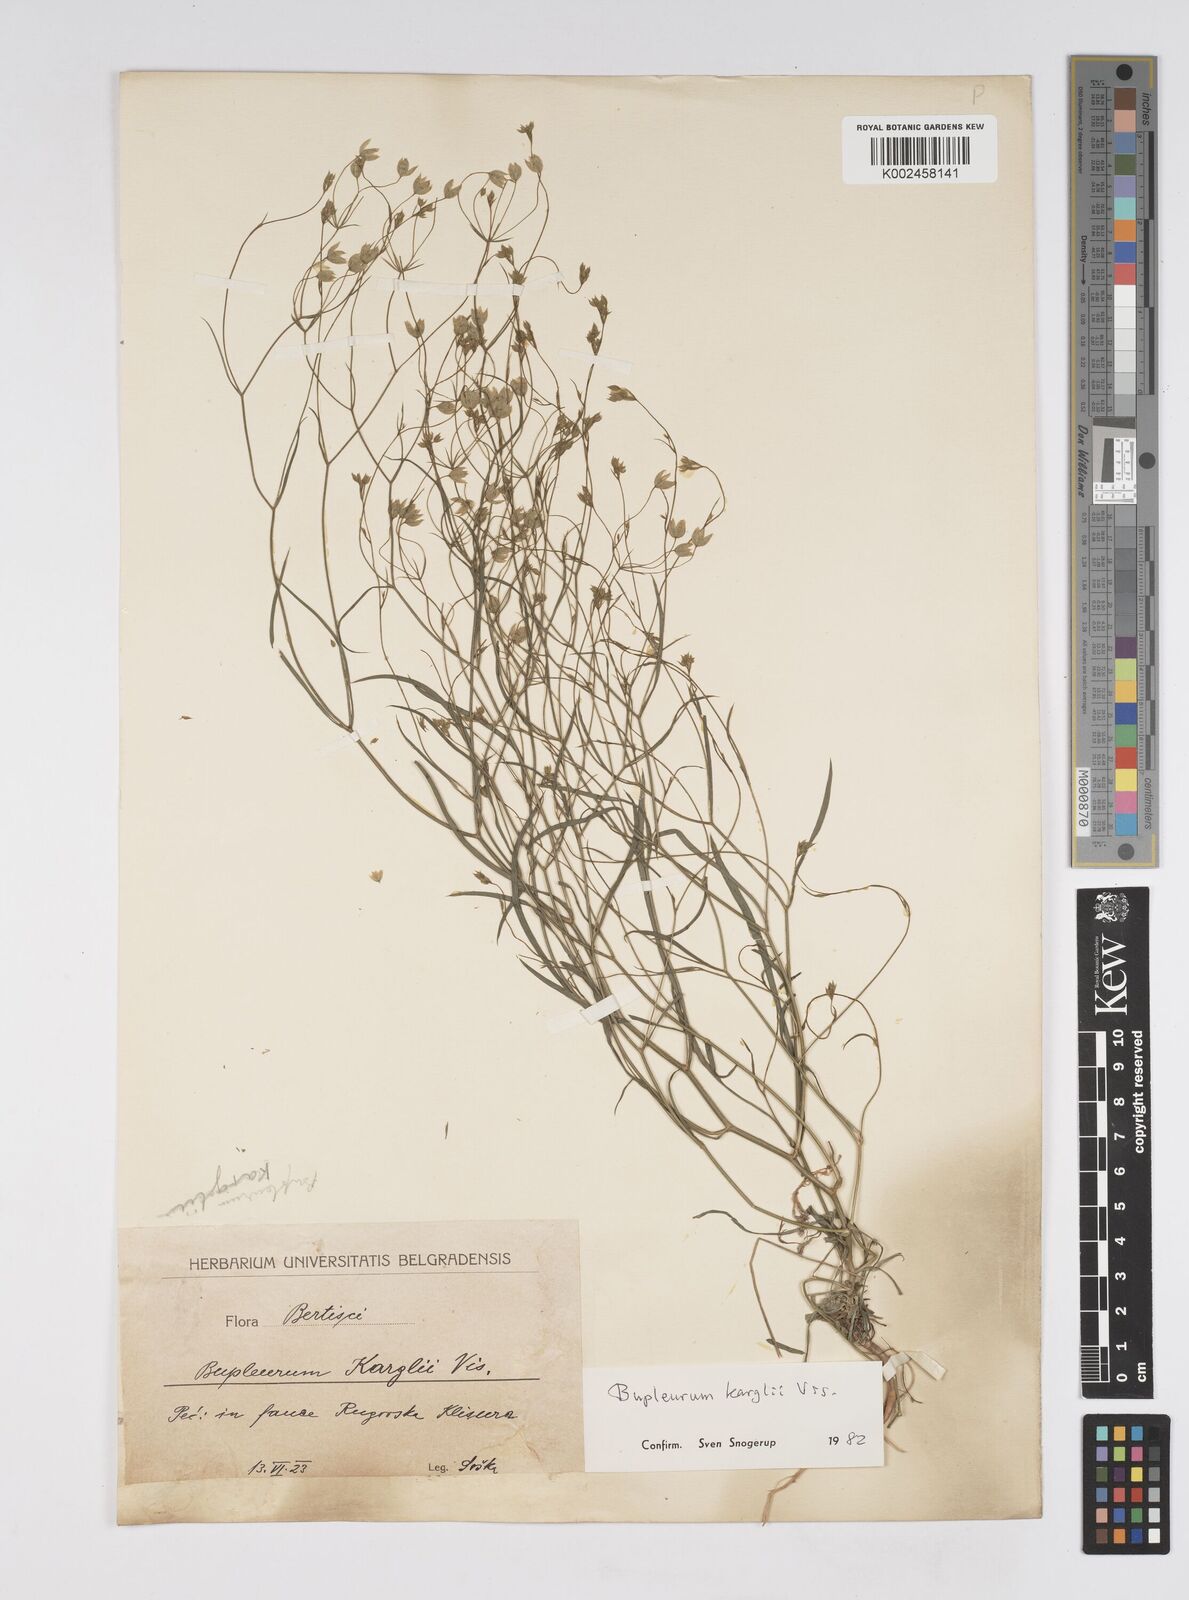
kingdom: Plantae
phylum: Tracheophyta
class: Magnoliopsida
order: Apiales
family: Apiaceae
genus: Bupleurum
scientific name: Bupleurum karglii
